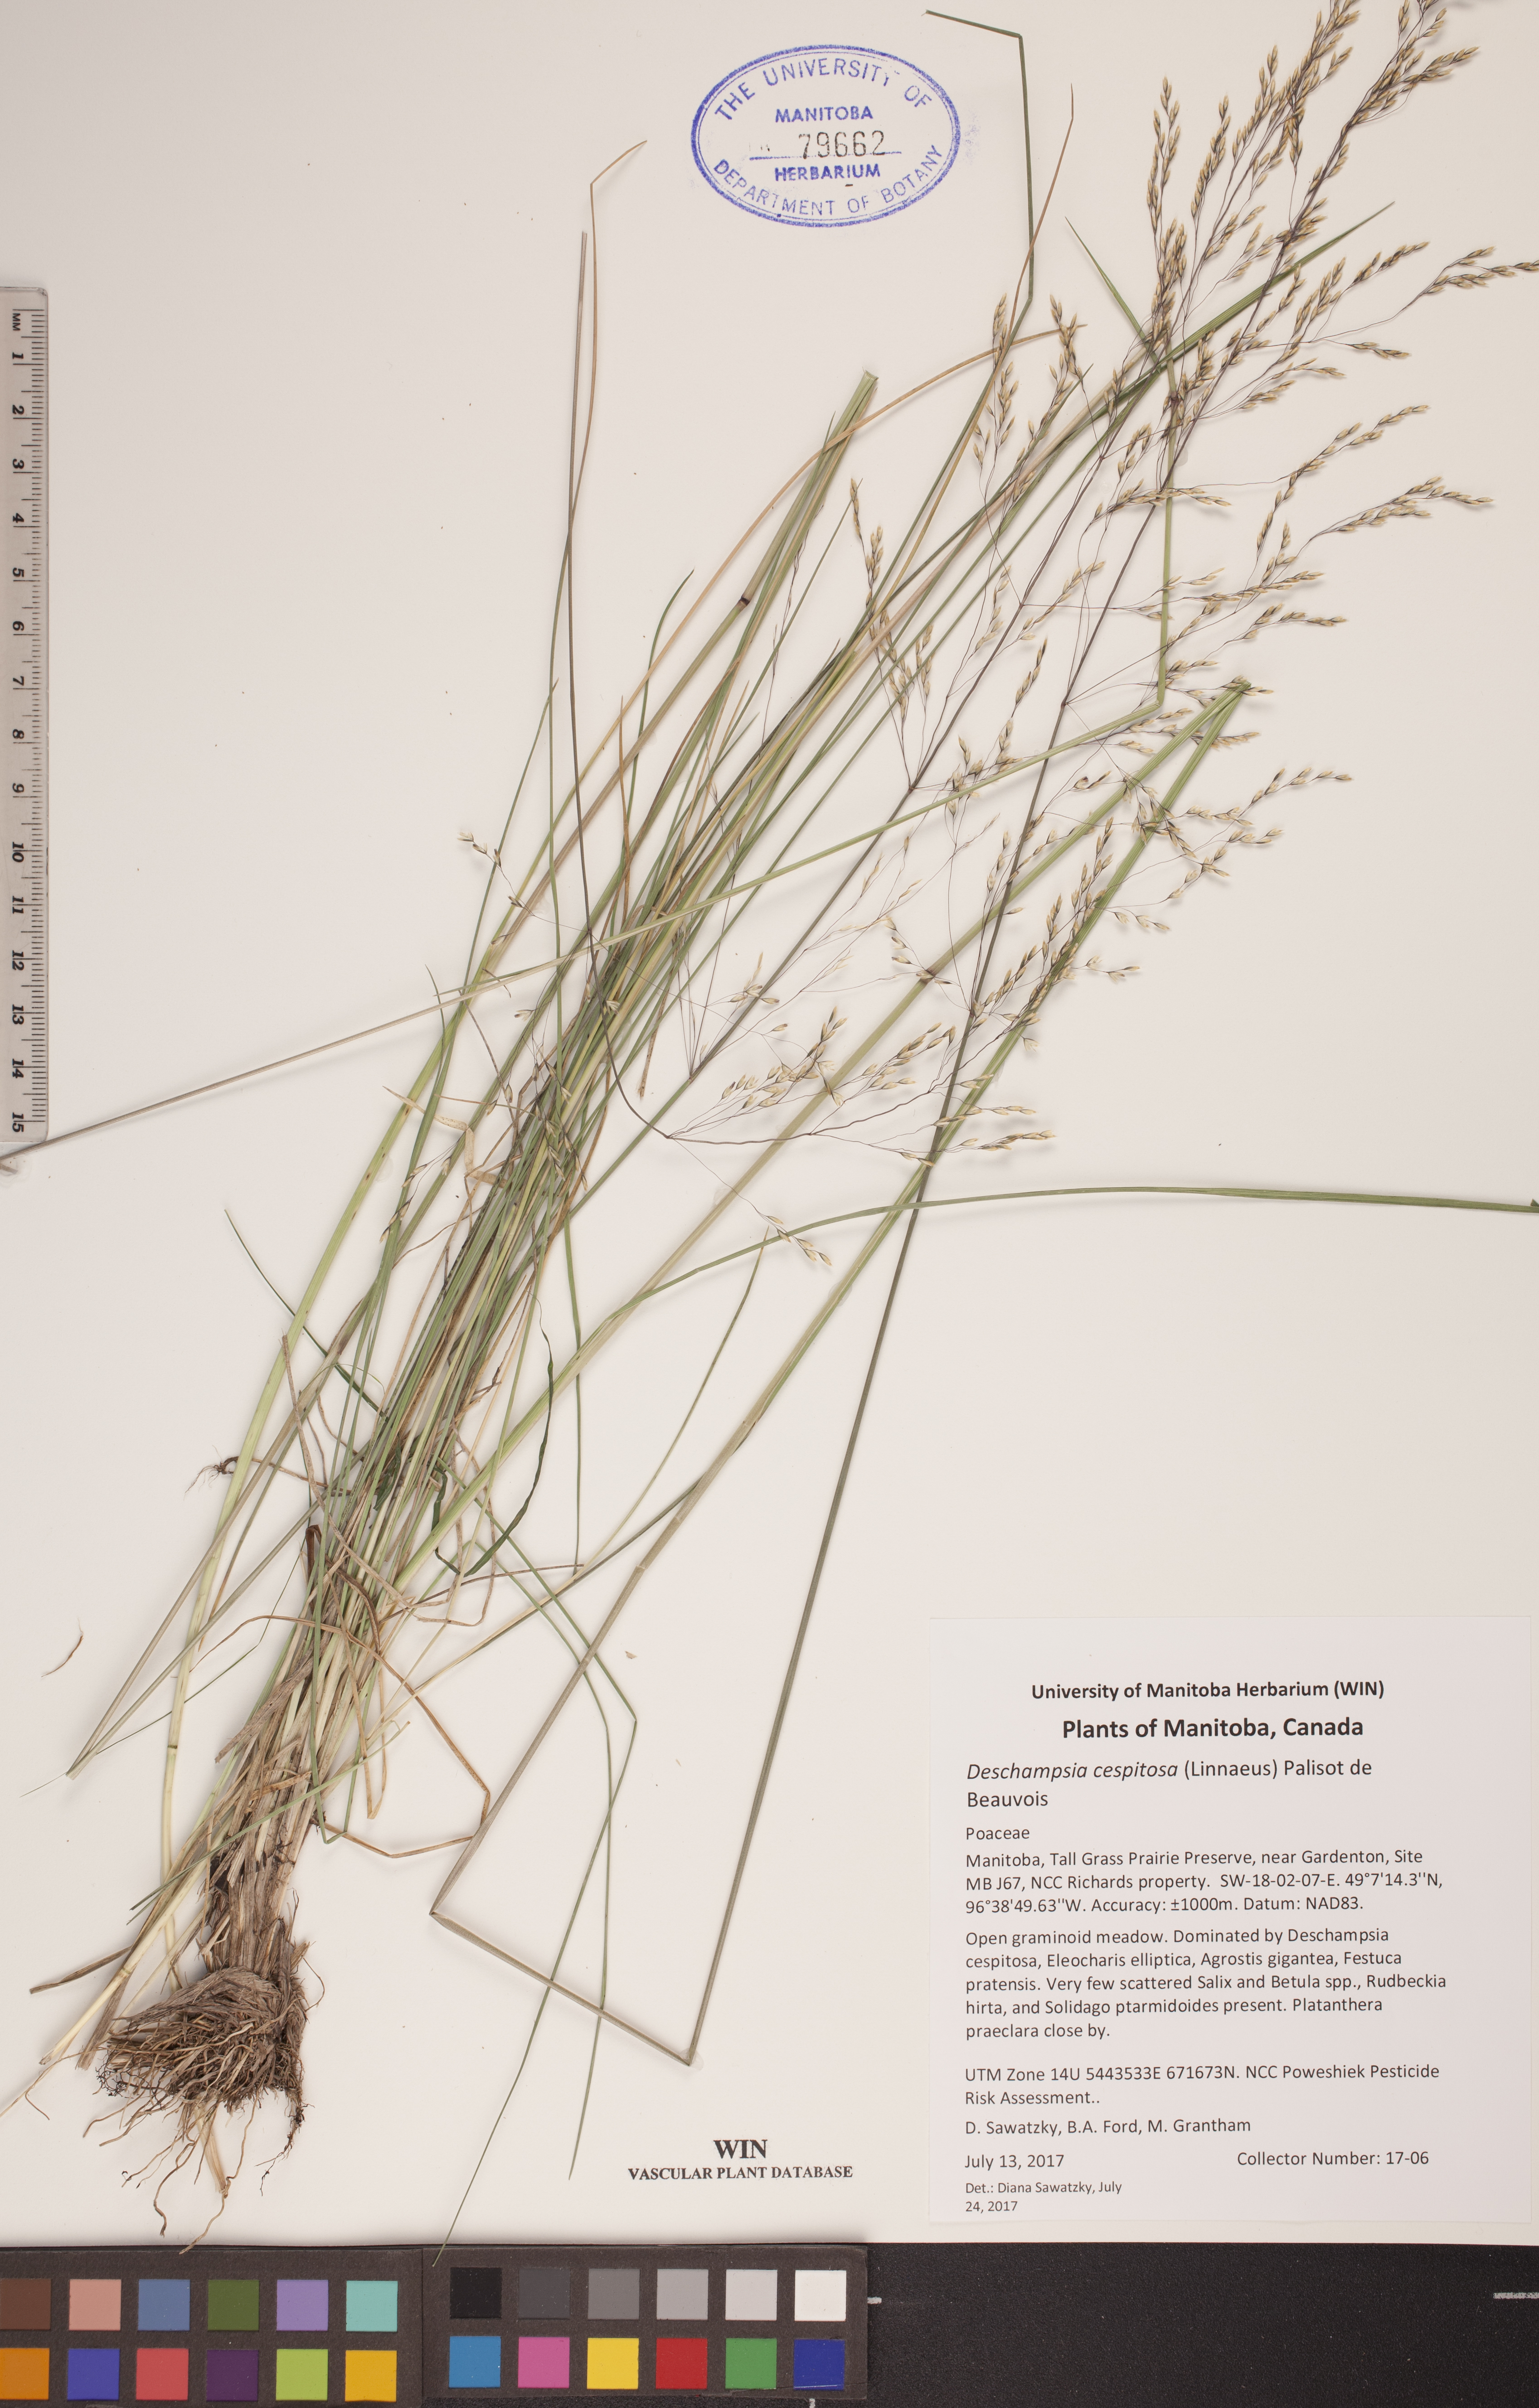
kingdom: Plantae
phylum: Tracheophyta
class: Liliopsida
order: Poales
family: Poaceae
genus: Deschampsia
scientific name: Deschampsia cespitosa
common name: Tufted hair-grass
